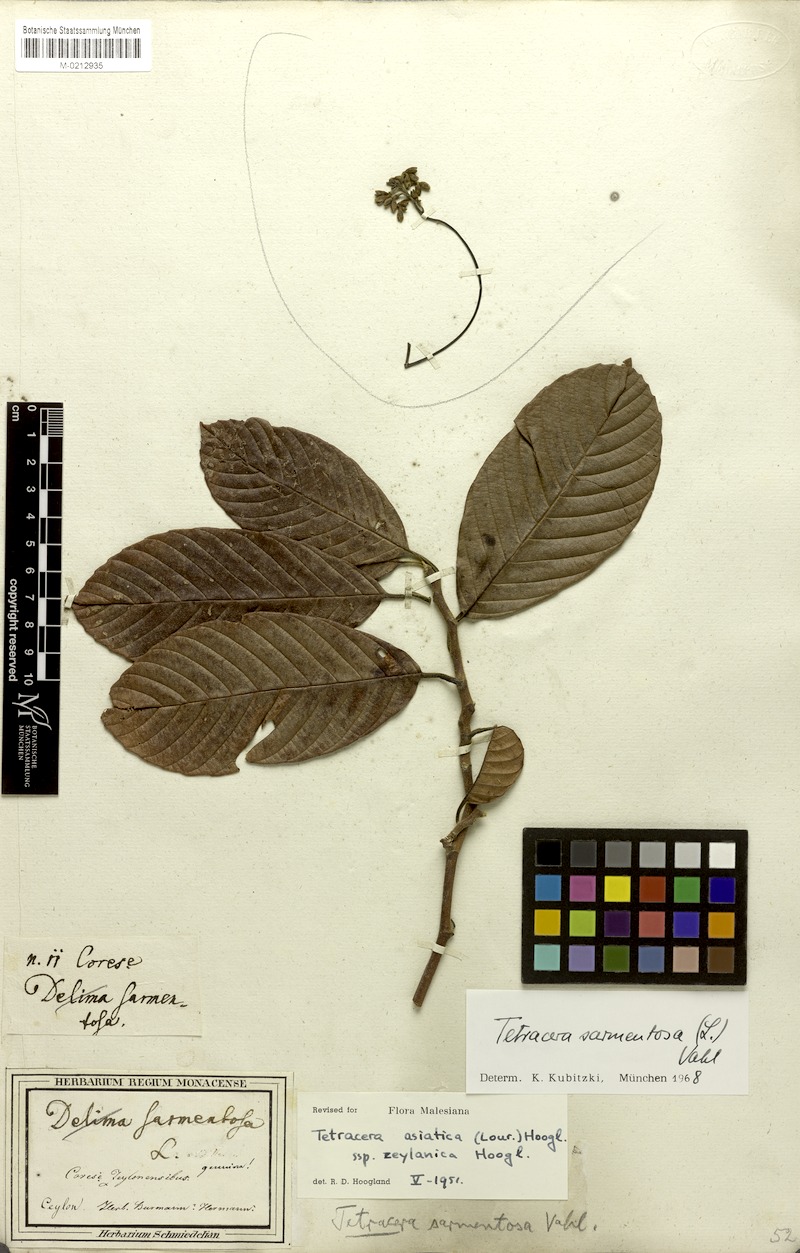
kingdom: Plantae
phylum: Tracheophyta
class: Magnoliopsida
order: Dilleniales
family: Dilleniaceae
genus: Tetracera
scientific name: Tetracera sarmentosa
